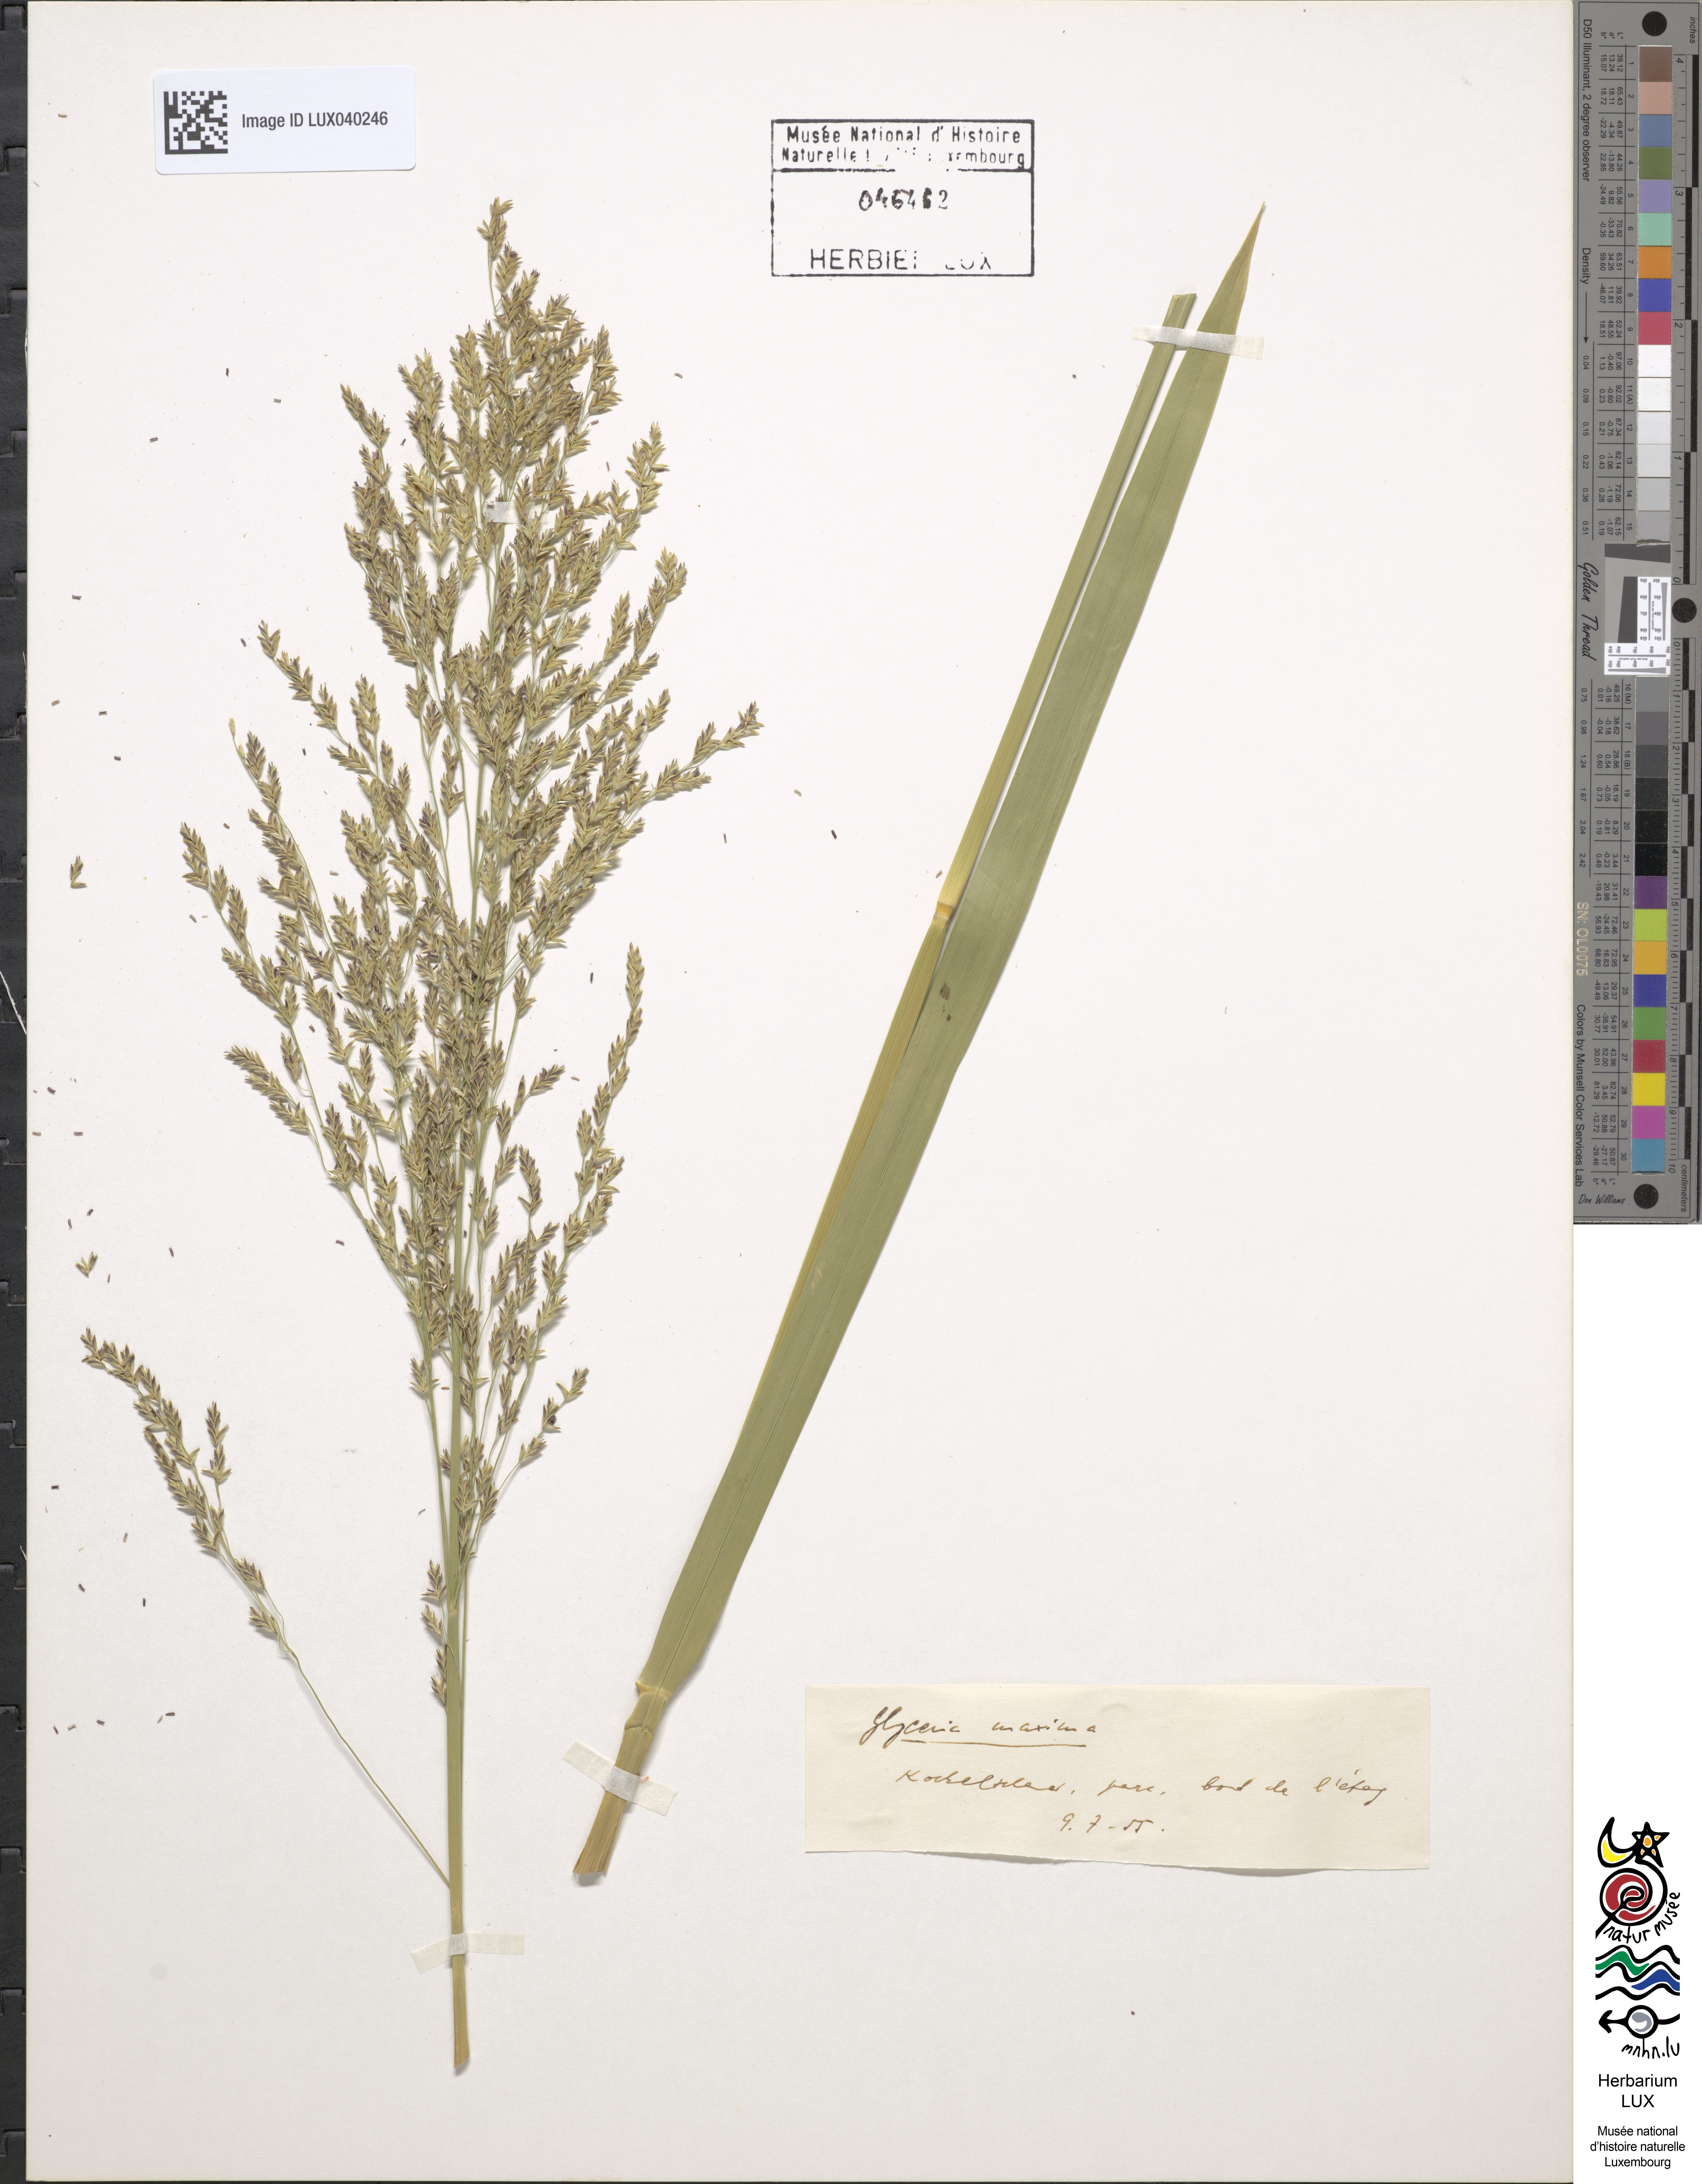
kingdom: Plantae
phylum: Tracheophyta
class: Liliopsida
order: Poales
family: Poaceae
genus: Glyceria
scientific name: Glyceria maxima
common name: Reed mannagrass
